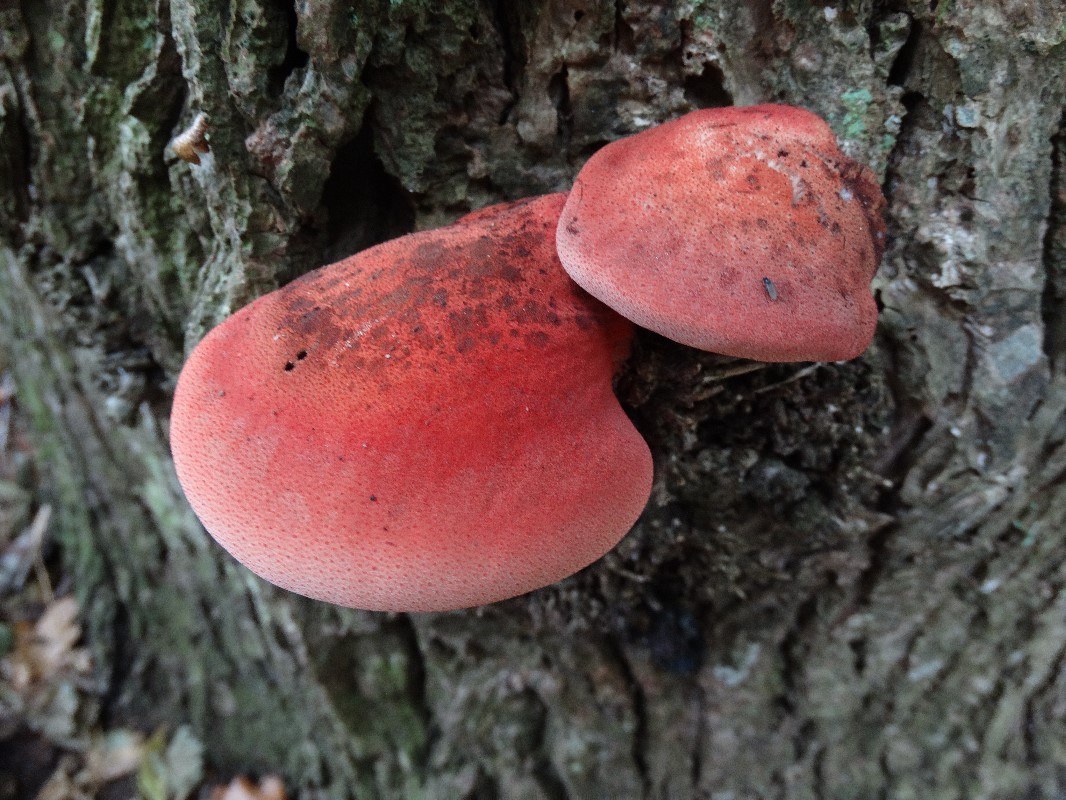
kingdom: Fungi
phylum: Basidiomycota
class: Agaricomycetes
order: Agaricales
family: Fistulinaceae
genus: Fistulina
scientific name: Fistulina hepatica
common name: oksetunge
